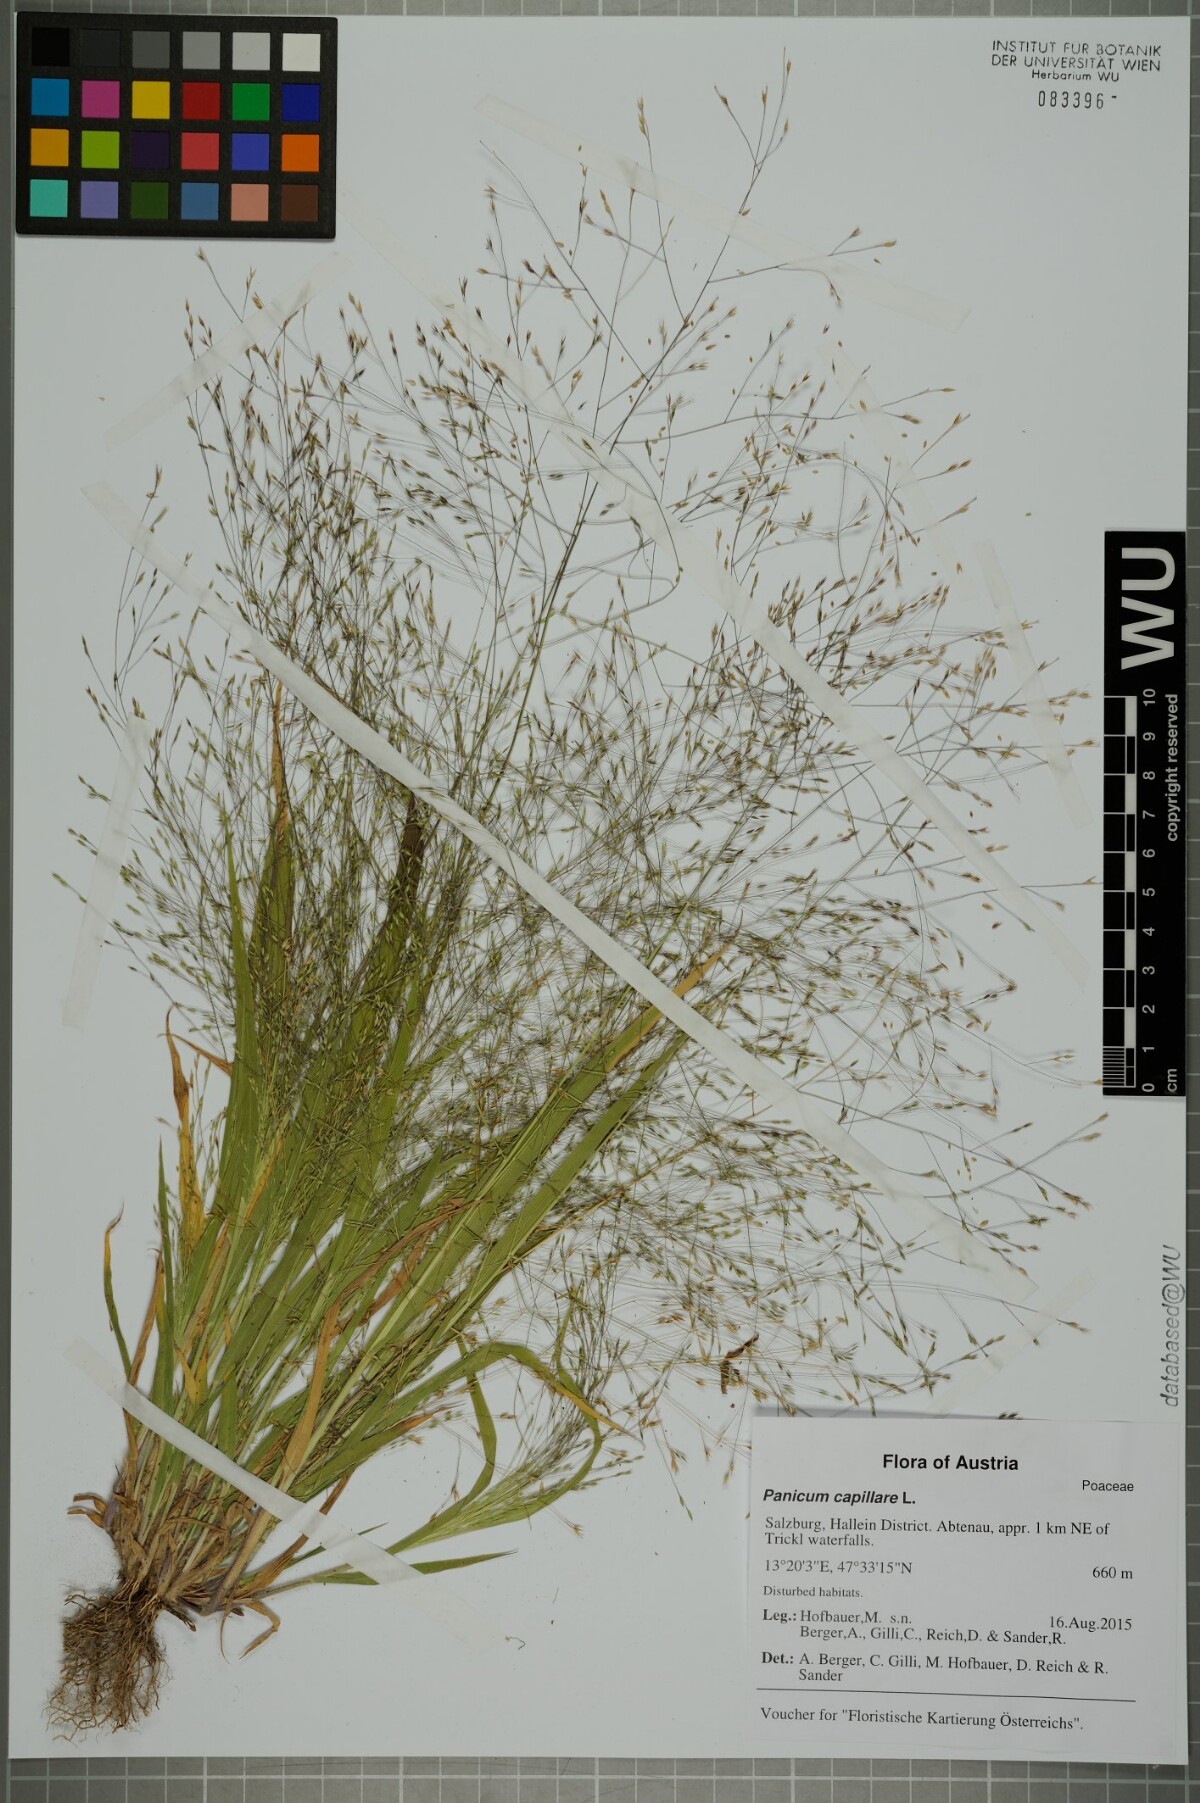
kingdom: Plantae
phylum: Tracheophyta
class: Liliopsida
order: Poales
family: Poaceae
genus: Panicum
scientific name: Panicum capillare
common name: Witch-grass
